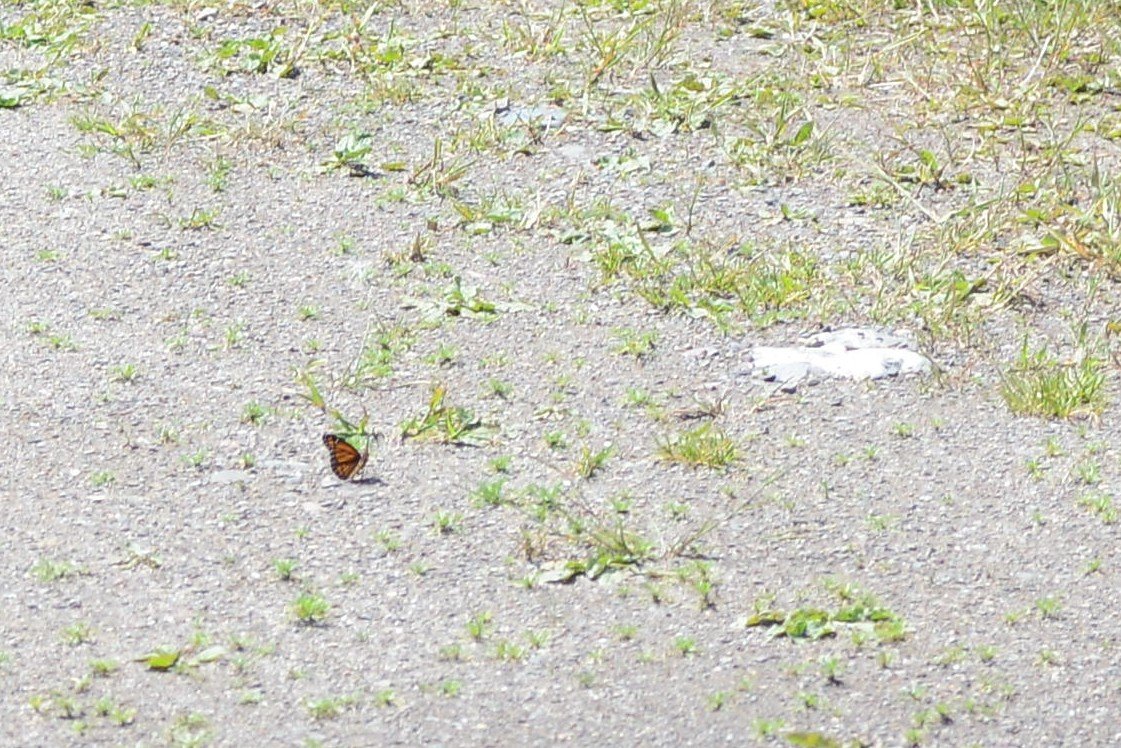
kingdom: Animalia
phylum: Arthropoda
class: Insecta
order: Lepidoptera
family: Nymphalidae
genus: Limenitis
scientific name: Limenitis archippus
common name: Viceroy
